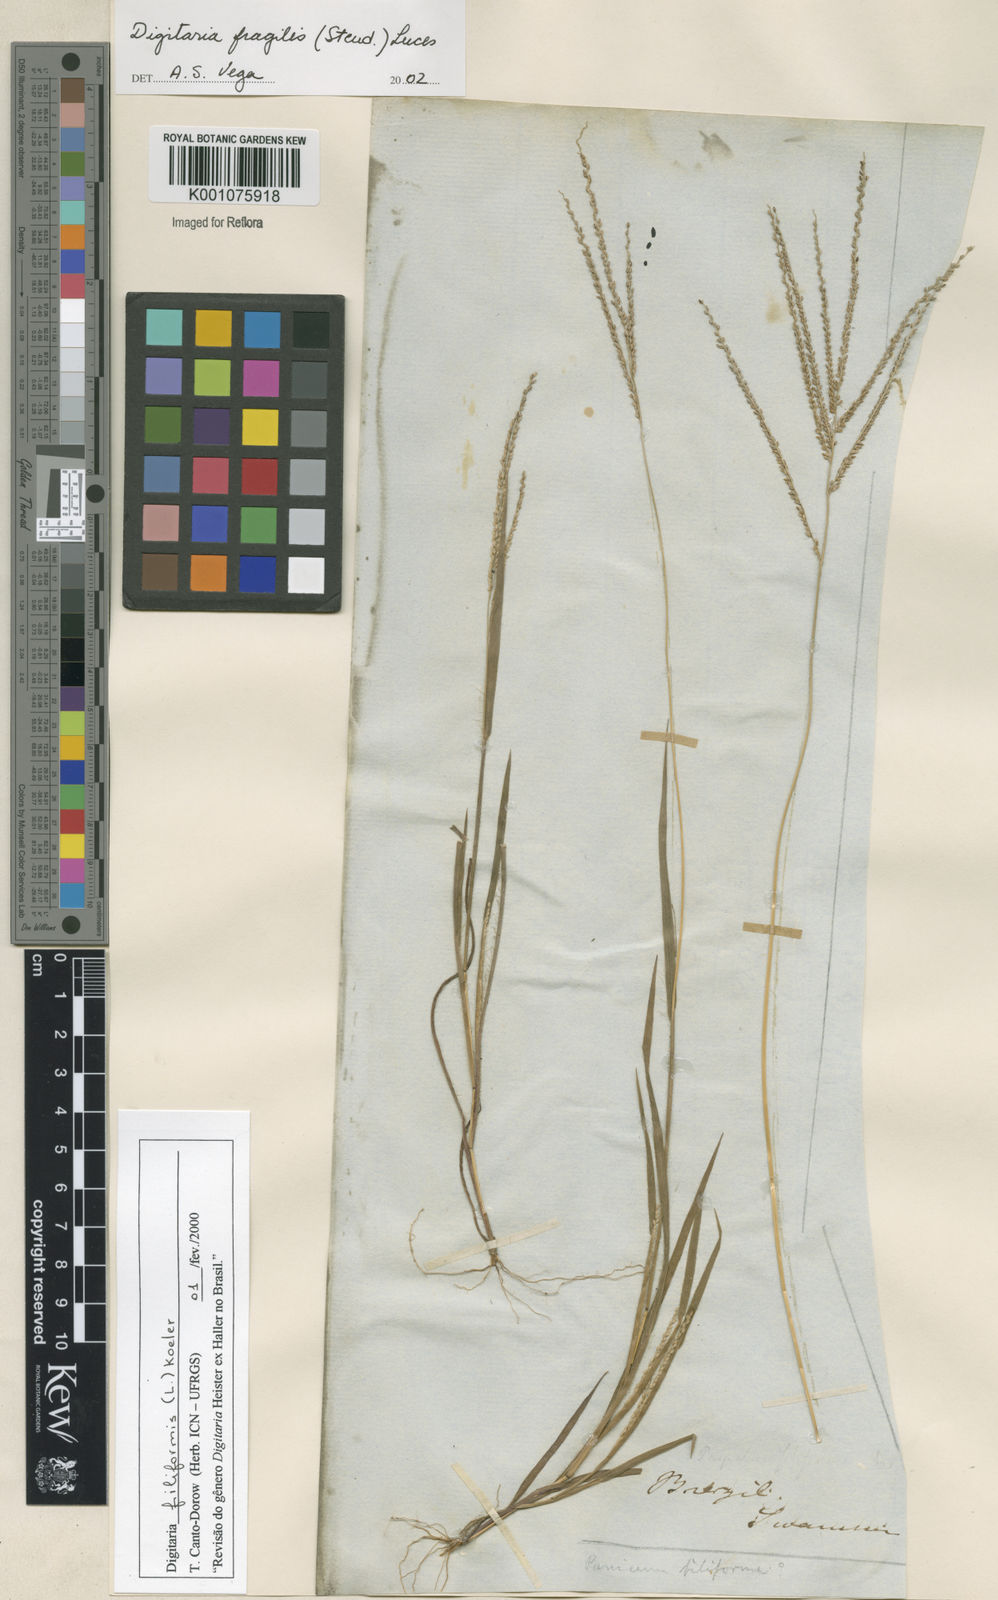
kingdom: Plantae
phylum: Tracheophyta
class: Liliopsida
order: Poales
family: Poaceae
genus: Digitaria
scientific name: Digitaria fragilis
